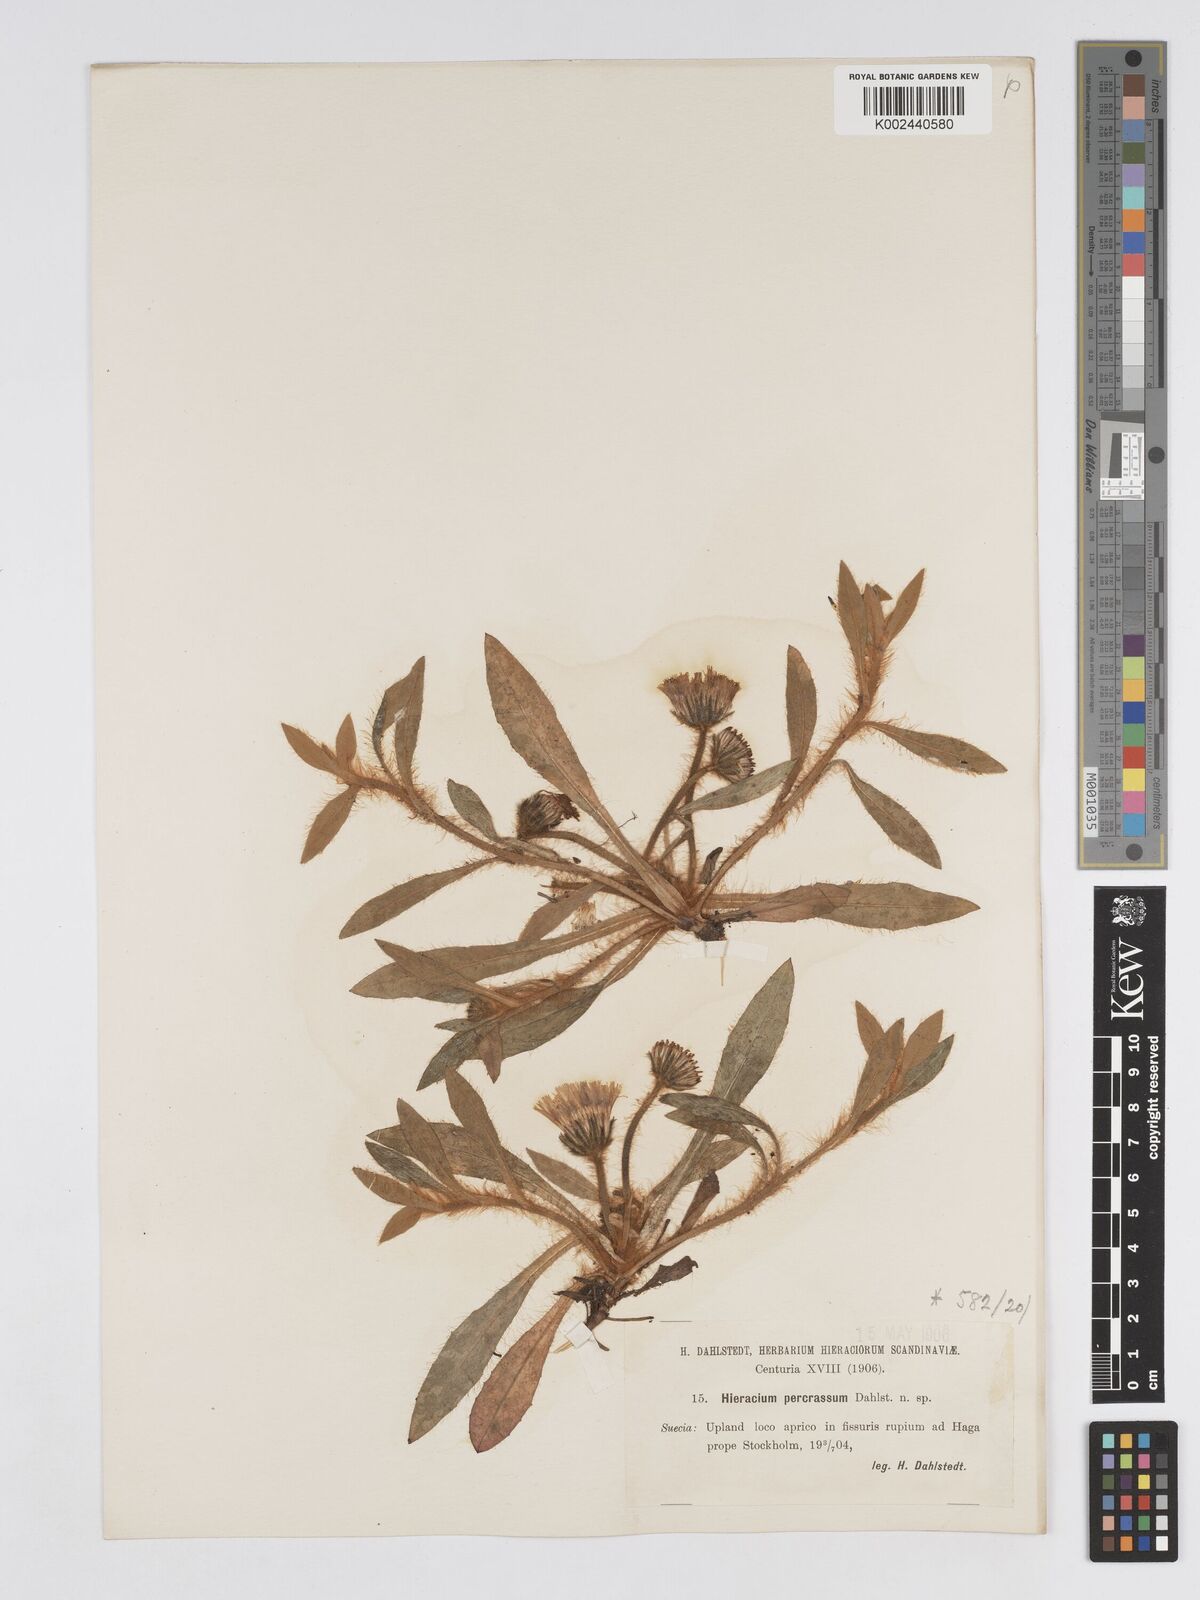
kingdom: Plantae
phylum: Tracheophyta
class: Magnoliopsida
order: Asterales
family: Asteraceae
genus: Pilosella
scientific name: Pilosella longisquama
